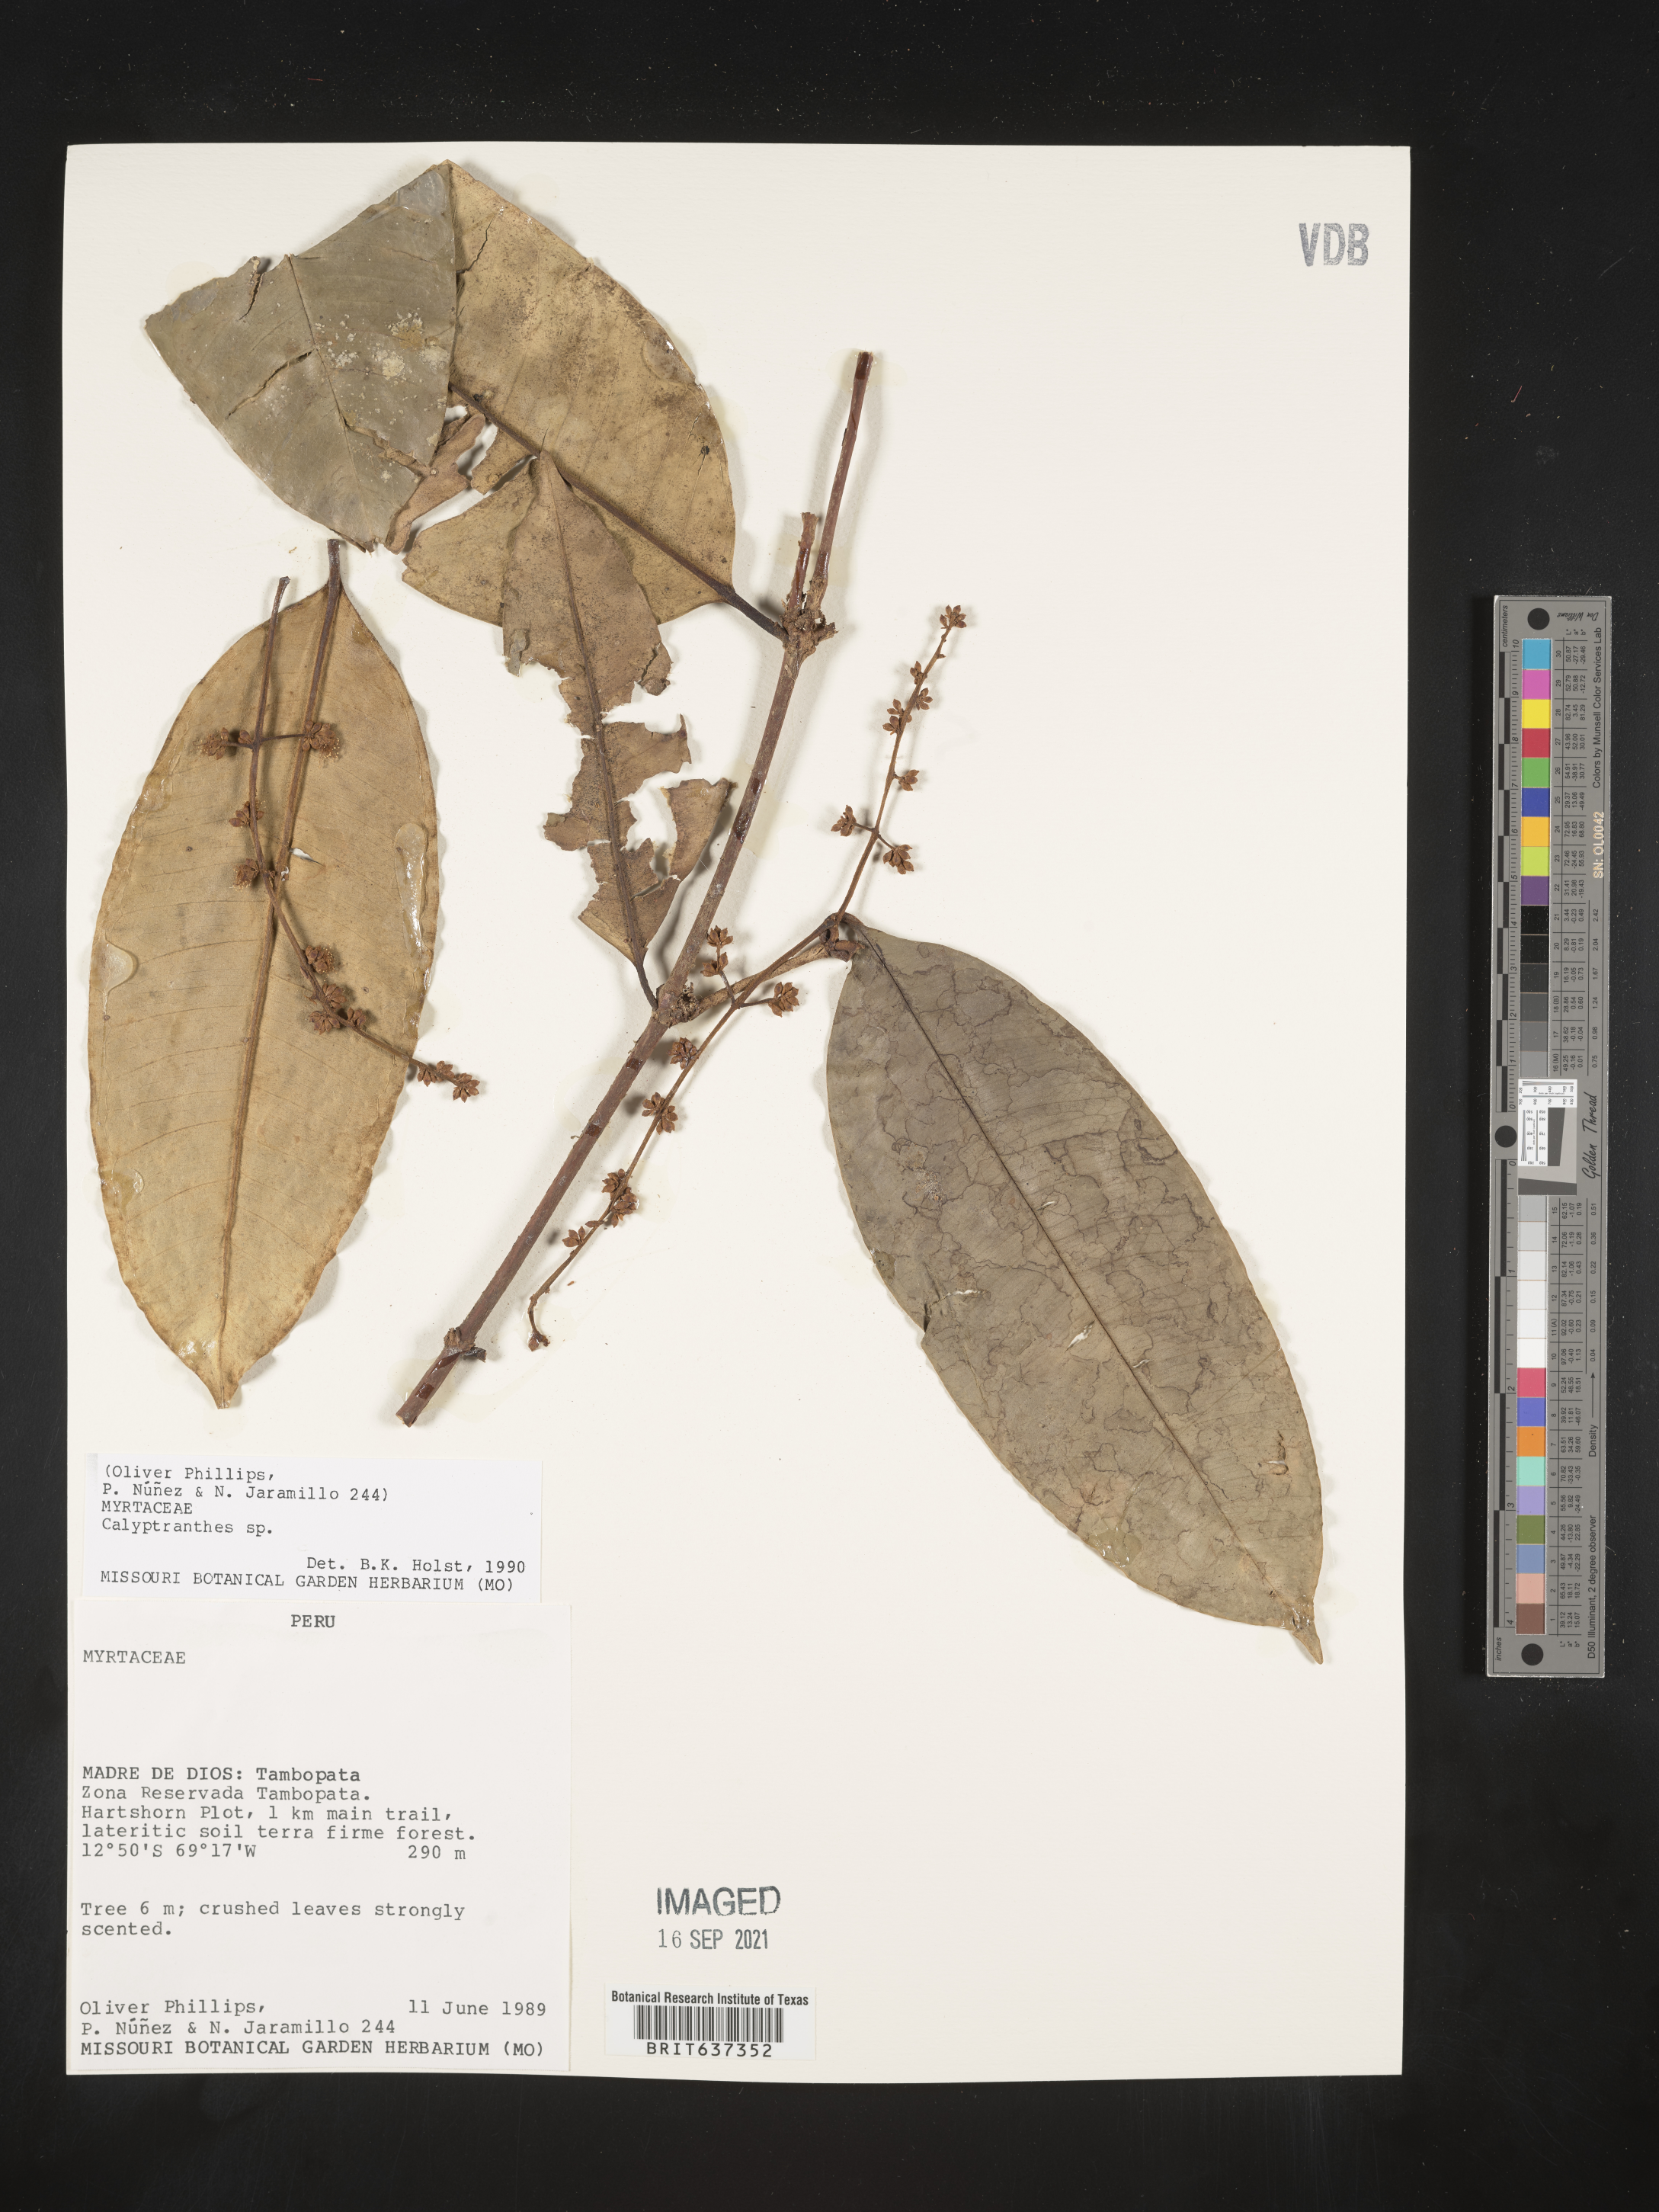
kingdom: Plantae
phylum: Tracheophyta
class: Magnoliopsida
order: Myrtales
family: Myrtaceae
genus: Calyptranthes
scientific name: Calyptranthes
